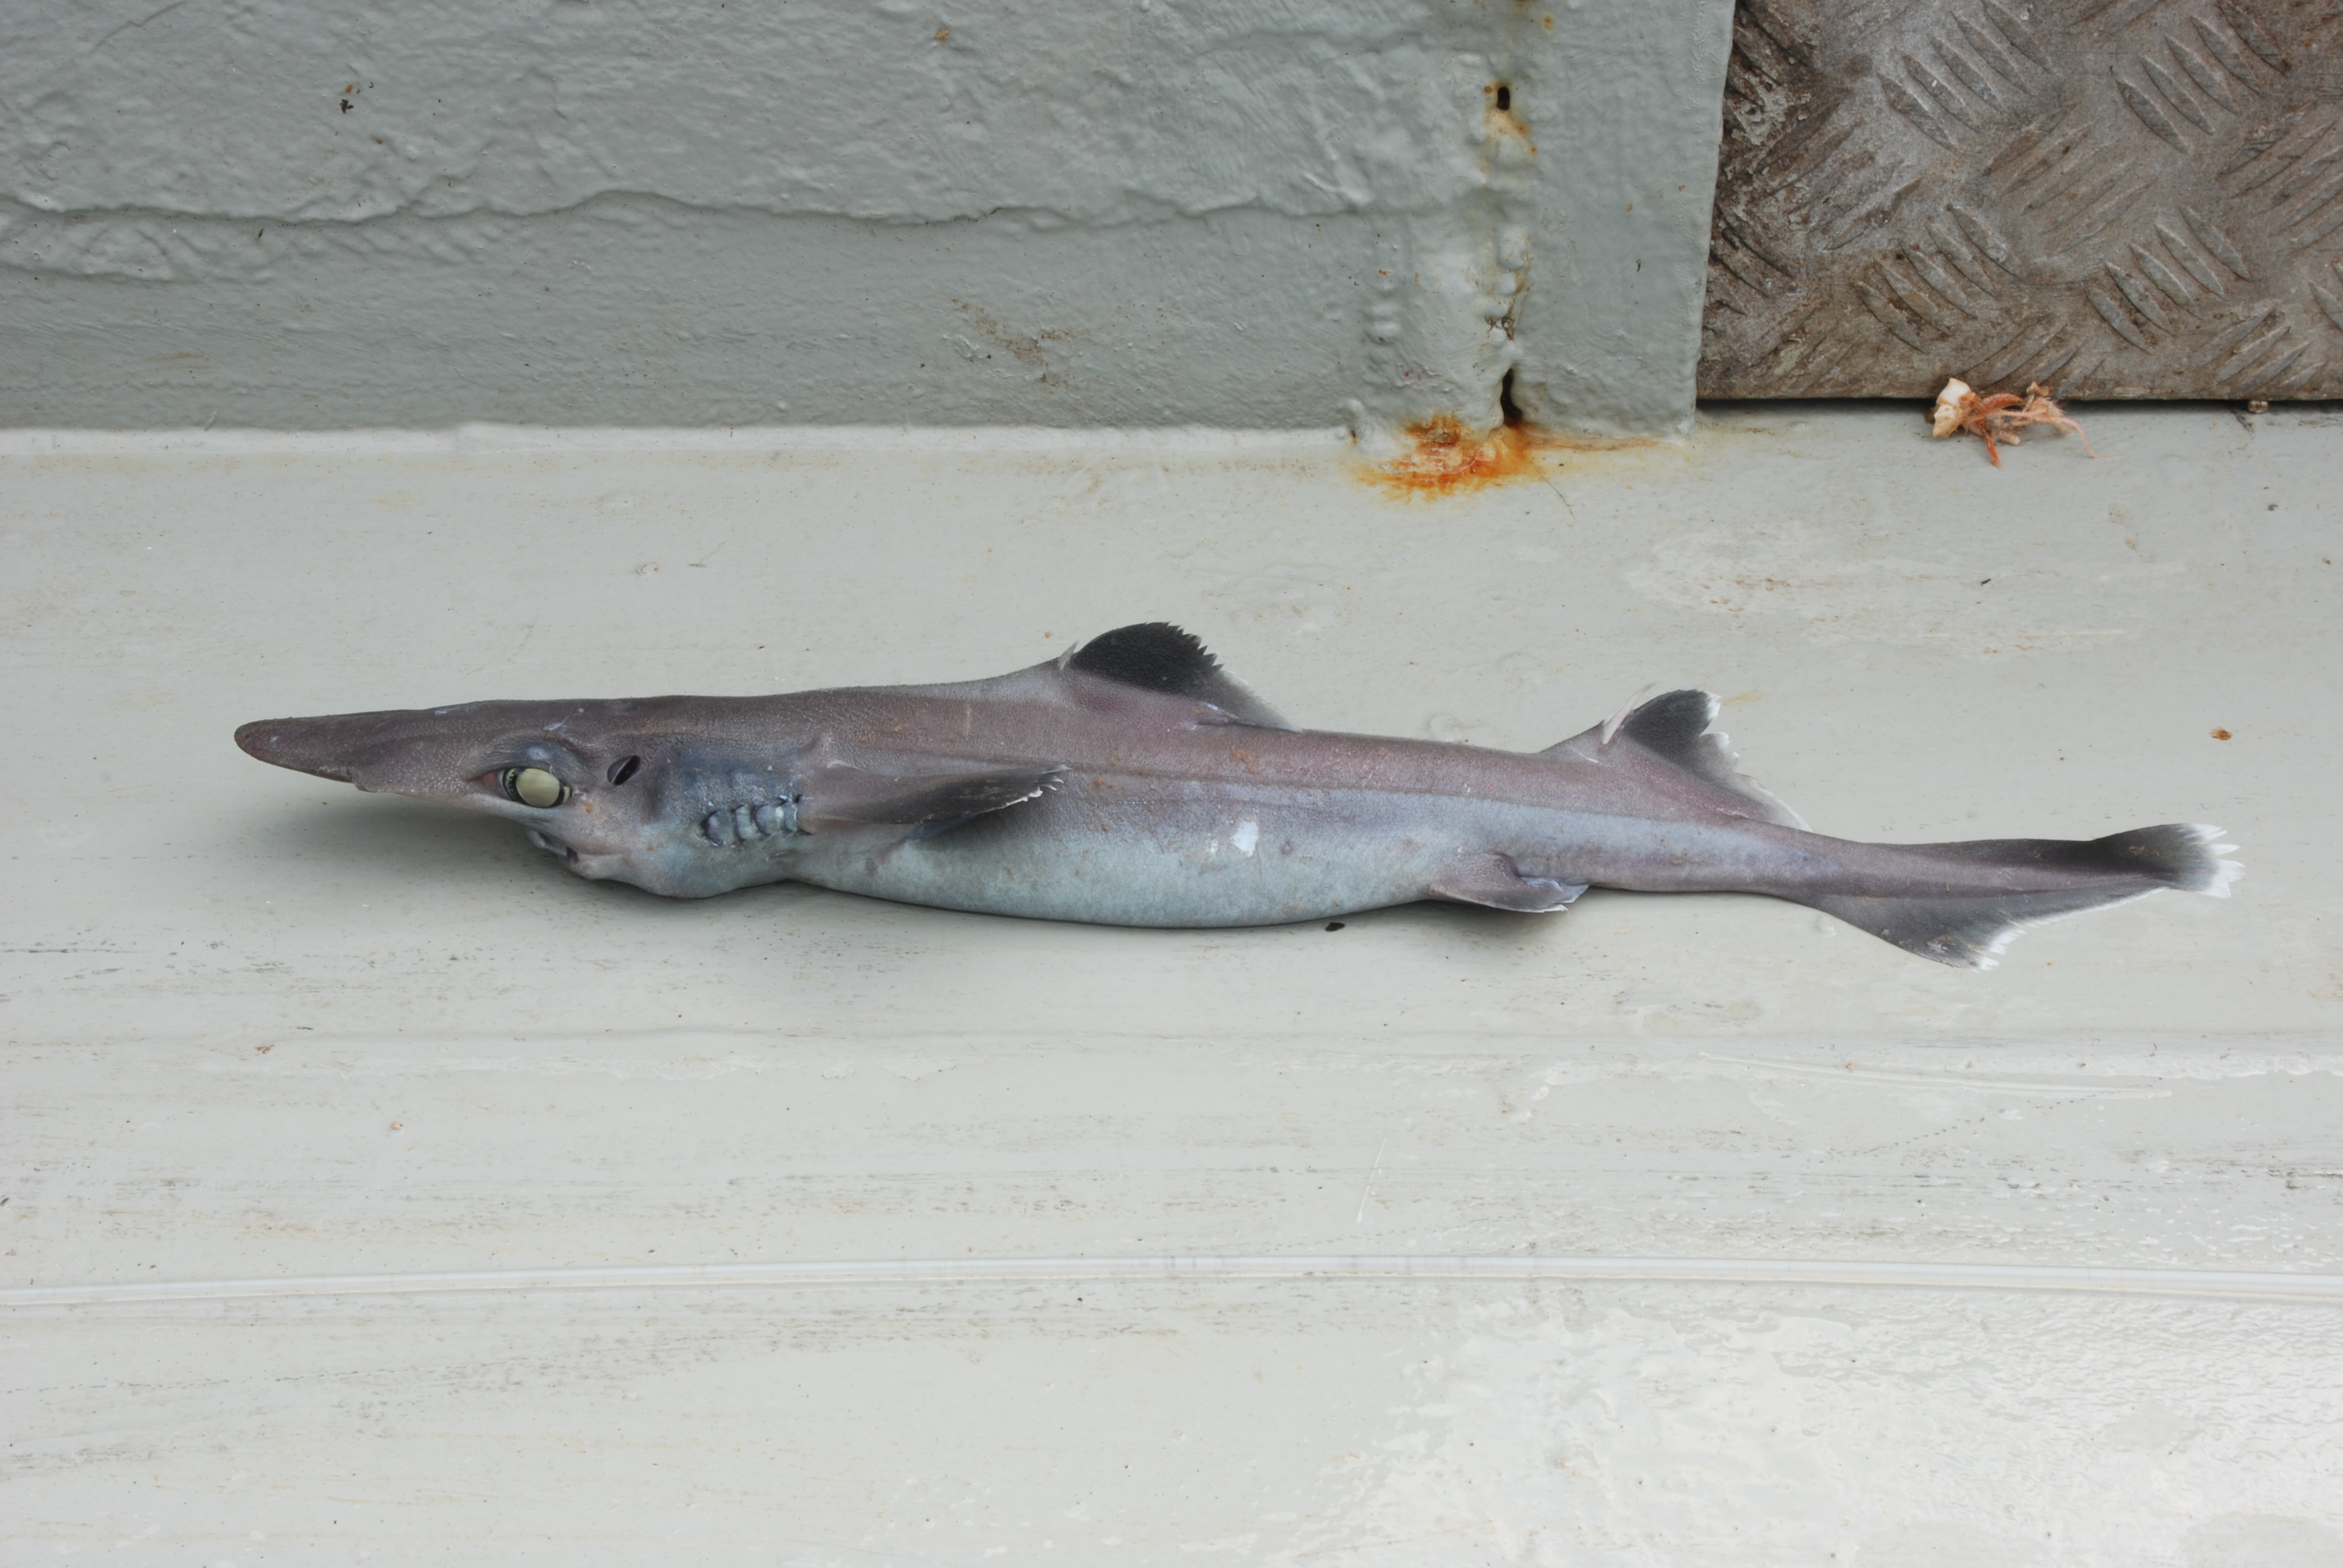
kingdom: Animalia
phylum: Chordata
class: Elasmobranchii
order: Squaliformes
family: Centrophoridae
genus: Deania
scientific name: Deania quadrispinosa
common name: Longsnout dogfish
